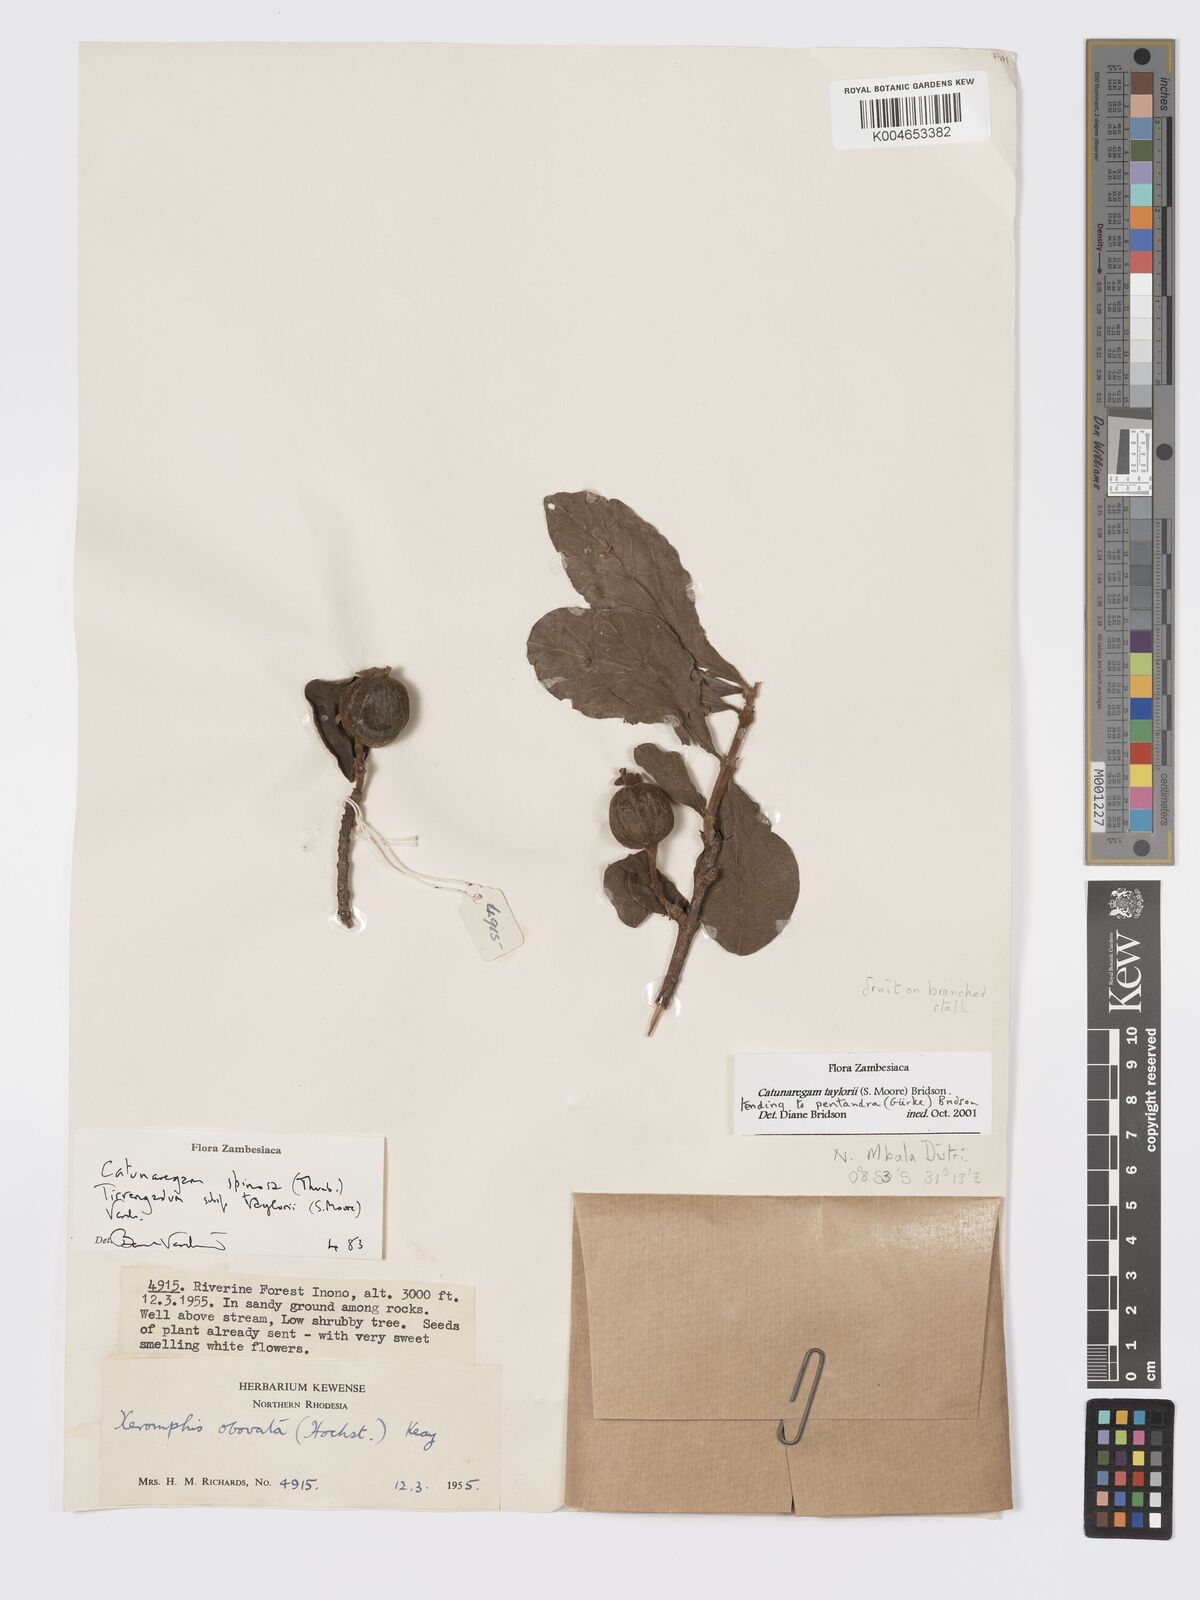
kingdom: Plantae
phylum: Tracheophyta
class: Magnoliopsida
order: Gentianales
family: Rubiaceae
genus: Catunaregam
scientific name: Catunaregam
